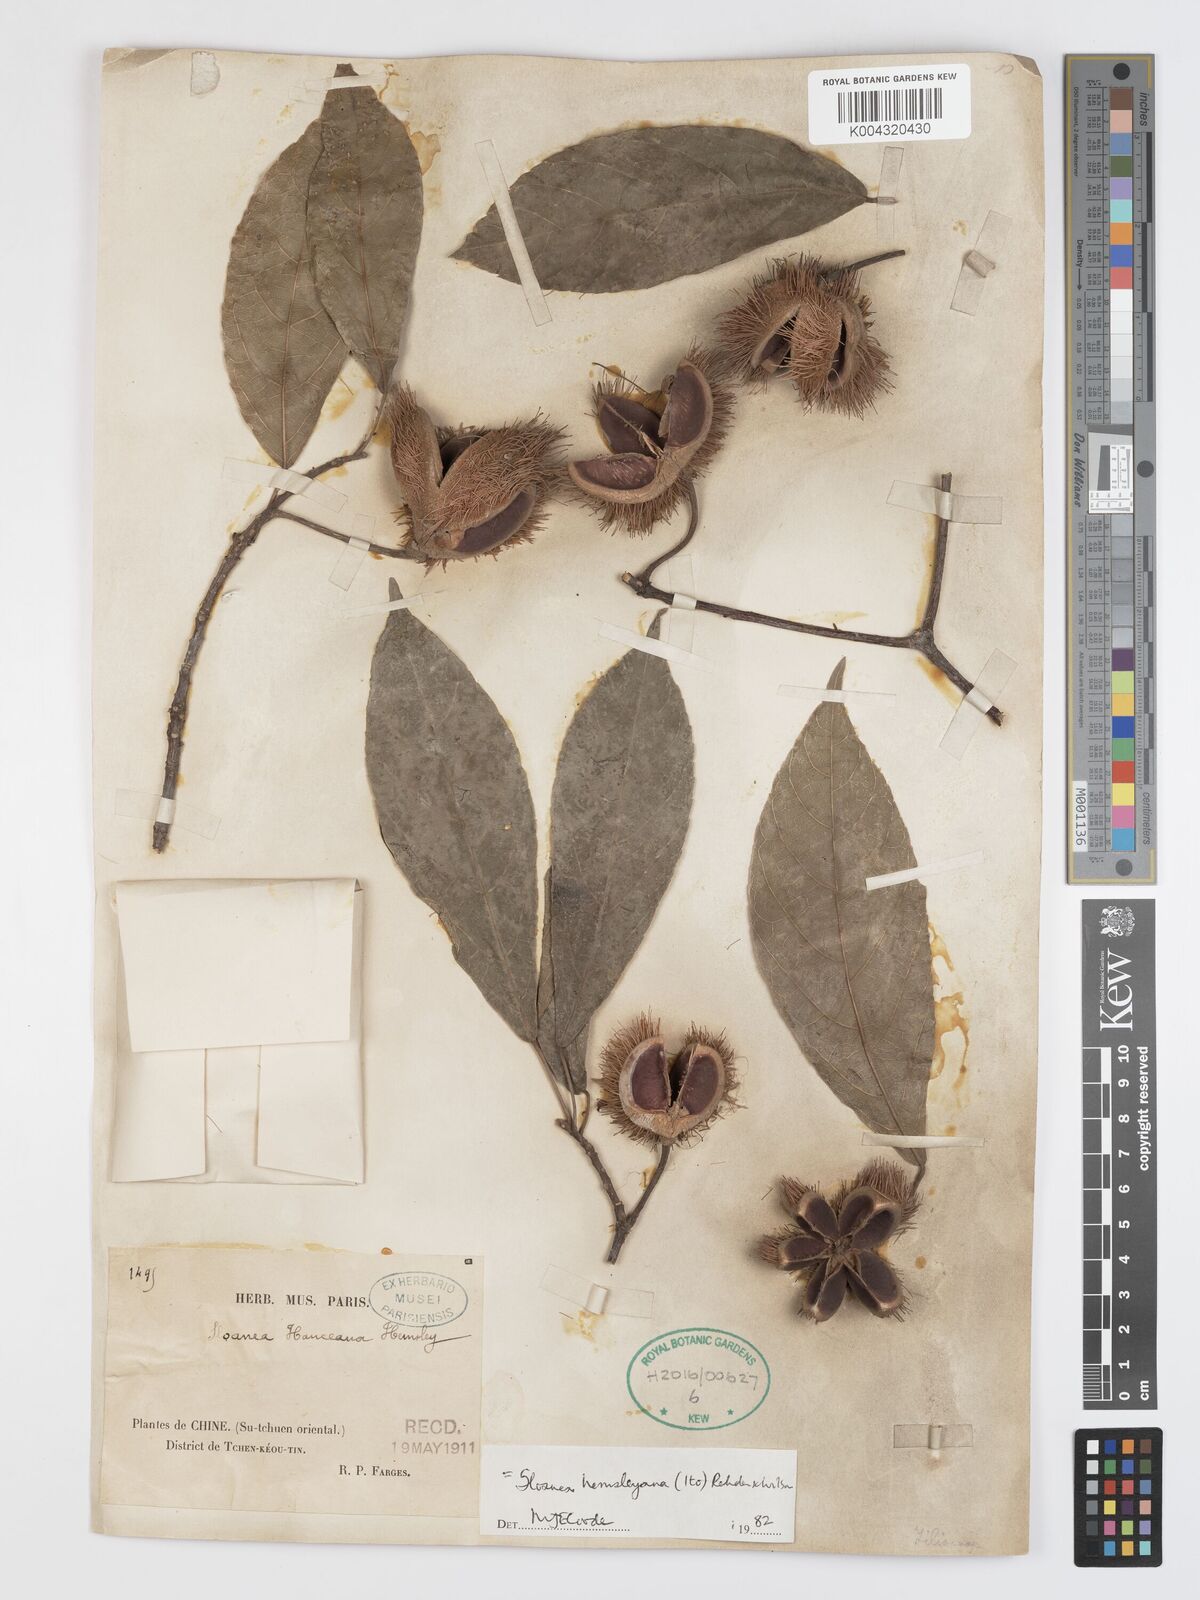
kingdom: Plantae
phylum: Tracheophyta
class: Magnoliopsida
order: Oxalidales
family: Elaeocarpaceae
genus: Sloanea
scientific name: Sloanea hemsleyana
